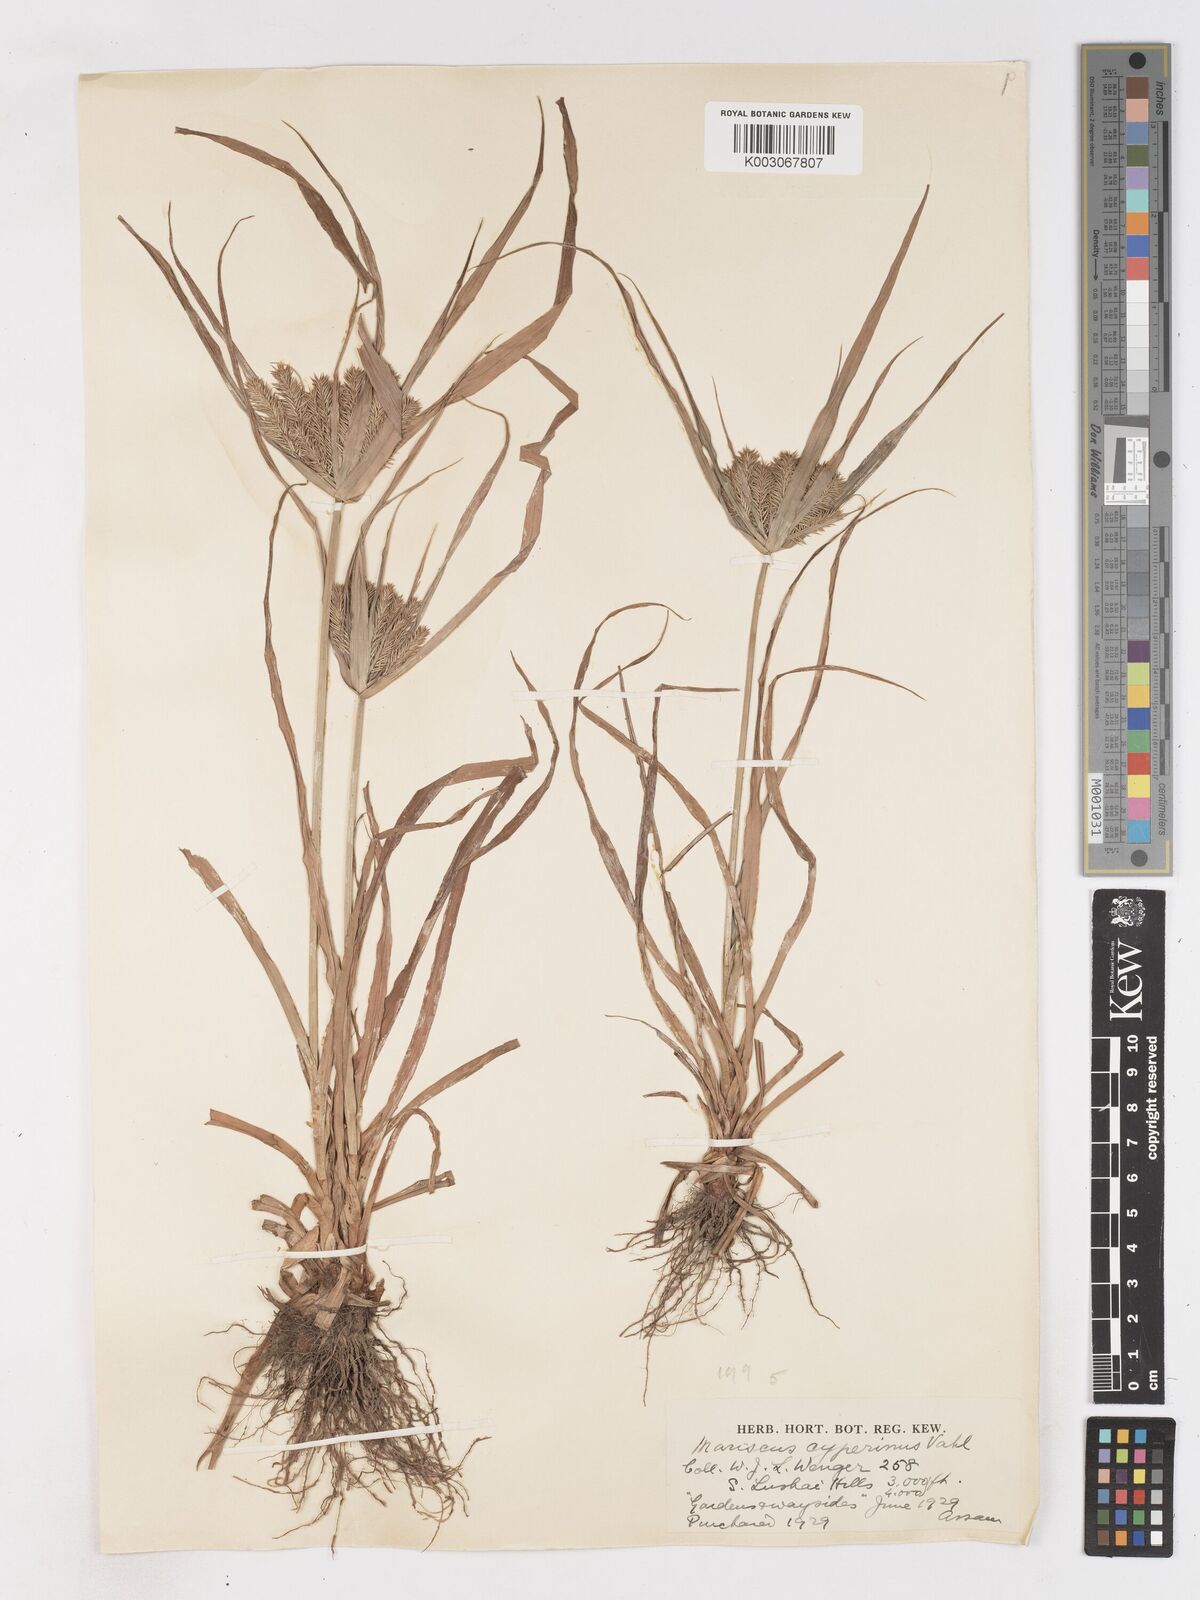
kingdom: Plantae
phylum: Tracheophyta
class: Liliopsida
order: Poales
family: Cyperaceae
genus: Cyperus
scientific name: Cyperus cyperoides
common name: Pacific island flat sedge
